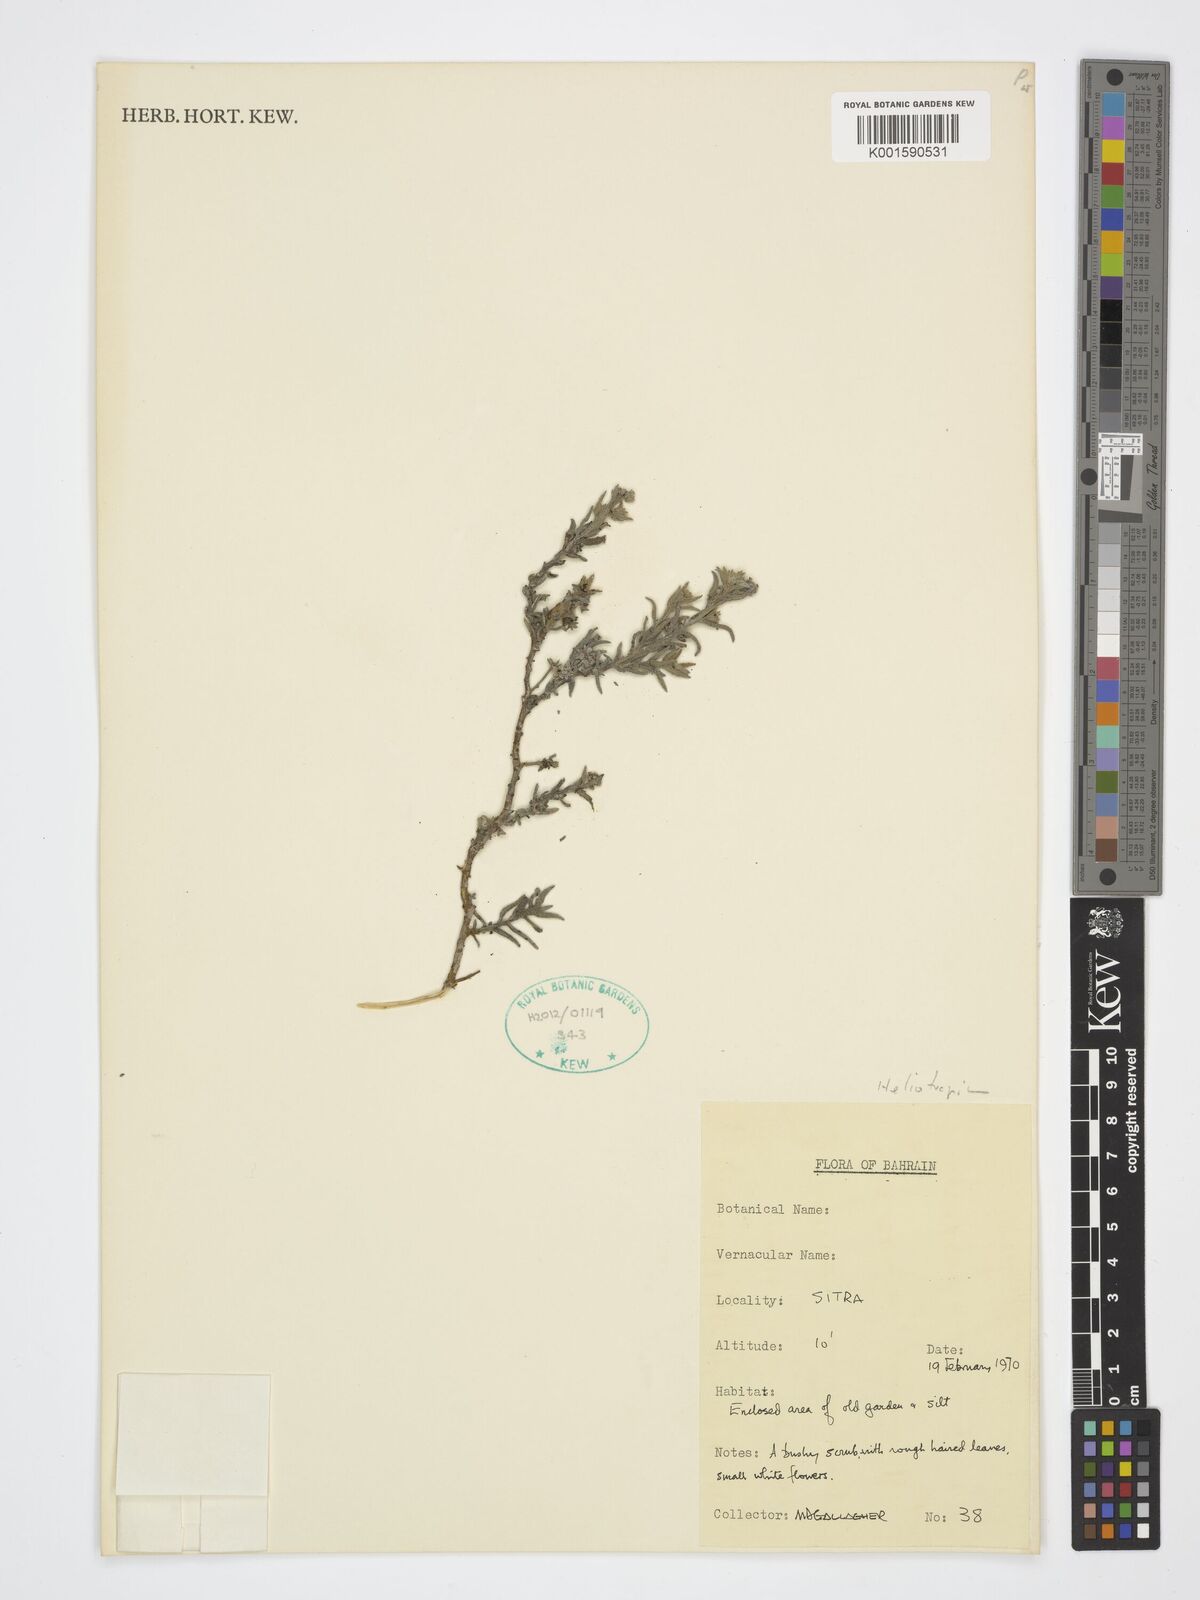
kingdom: Plantae
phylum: Tracheophyta
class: Magnoliopsida
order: Boraginales
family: Heliotropiaceae
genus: Heliotropium
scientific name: Heliotropium
